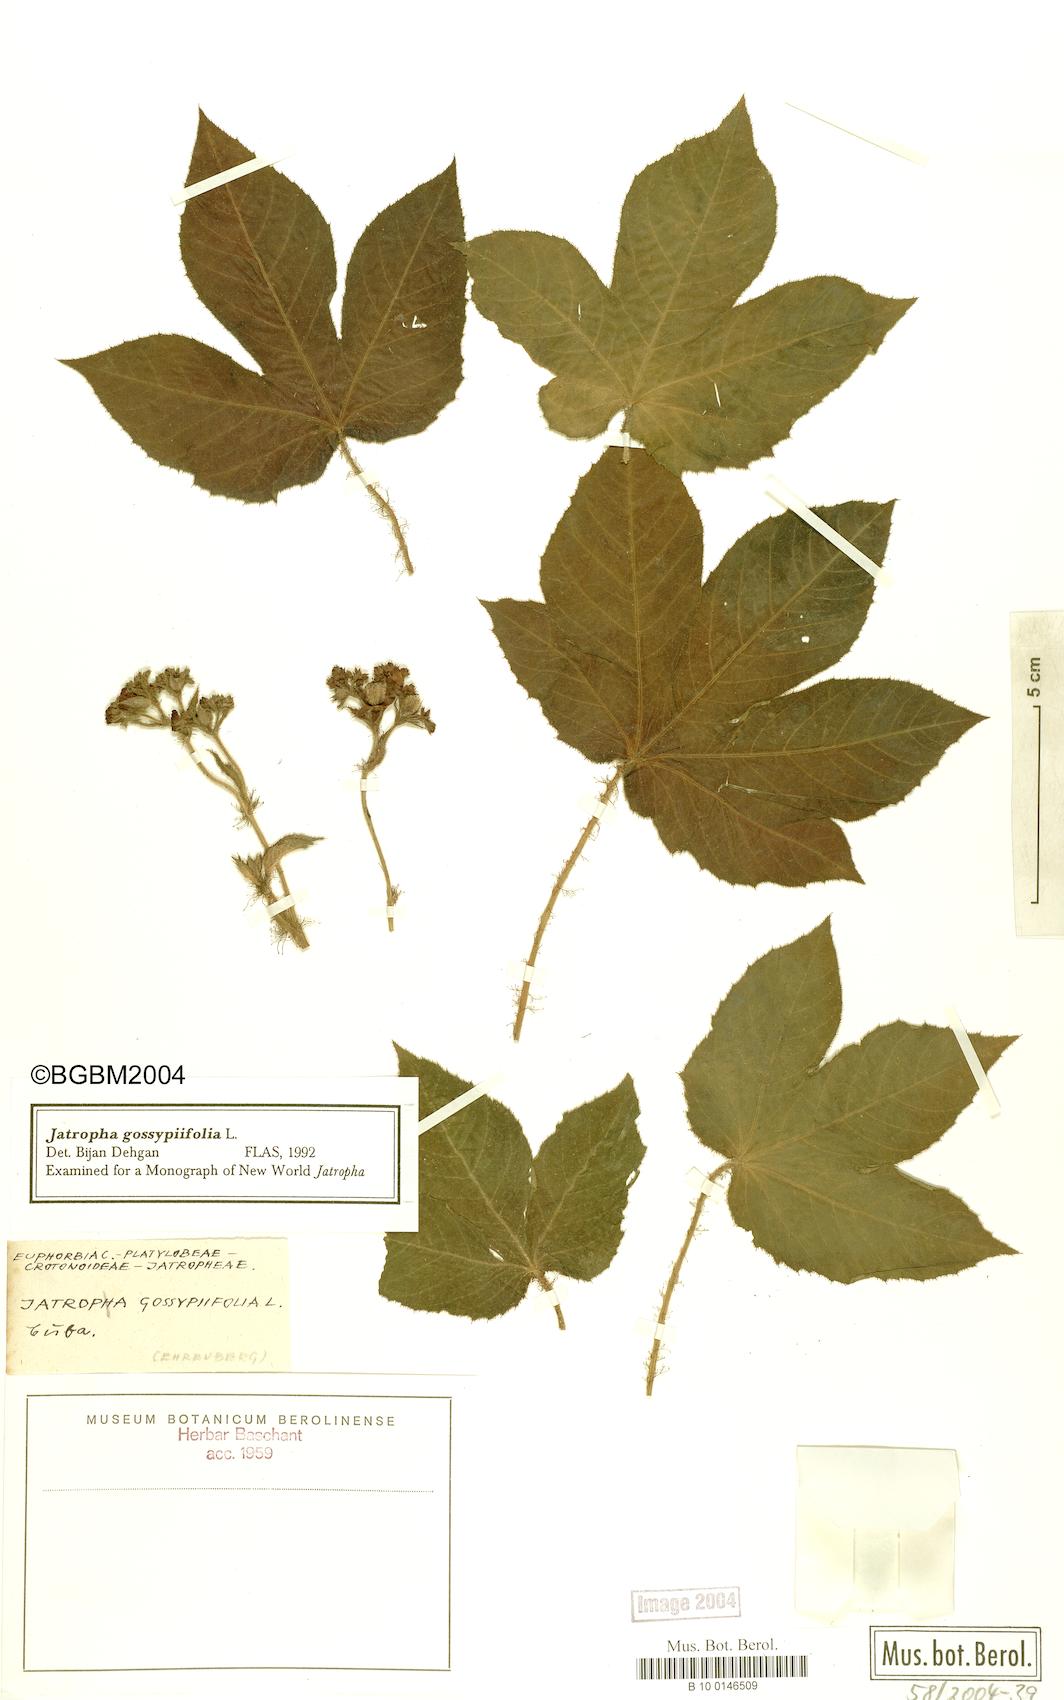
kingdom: Plantae
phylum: Tracheophyta
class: Magnoliopsida
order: Malpighiales
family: Euphorbiaceae
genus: Jatropha
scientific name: Jatropha gossypiifolia
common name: Bellyache bush
